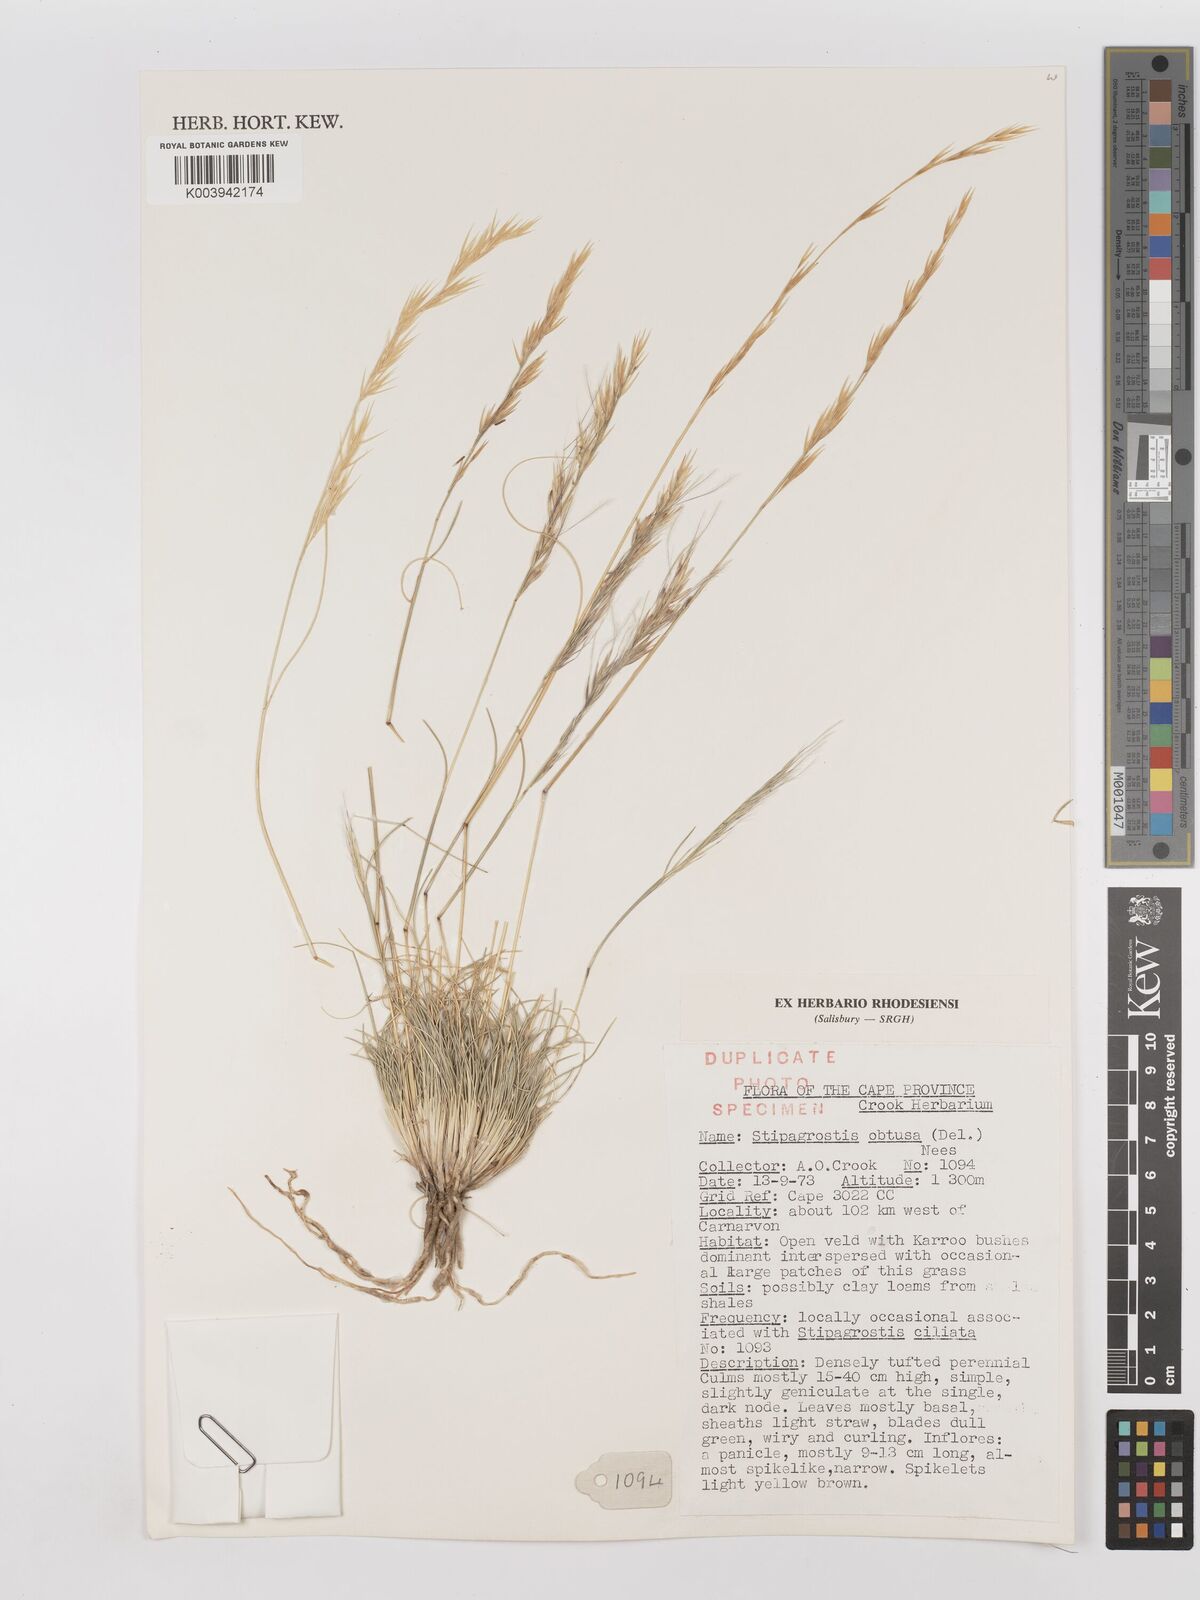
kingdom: Plantae
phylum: Tracheophyta
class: Liliopsida
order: Poales
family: Poaceae
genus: Stipagrostis
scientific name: Stipagrostis obtusa
